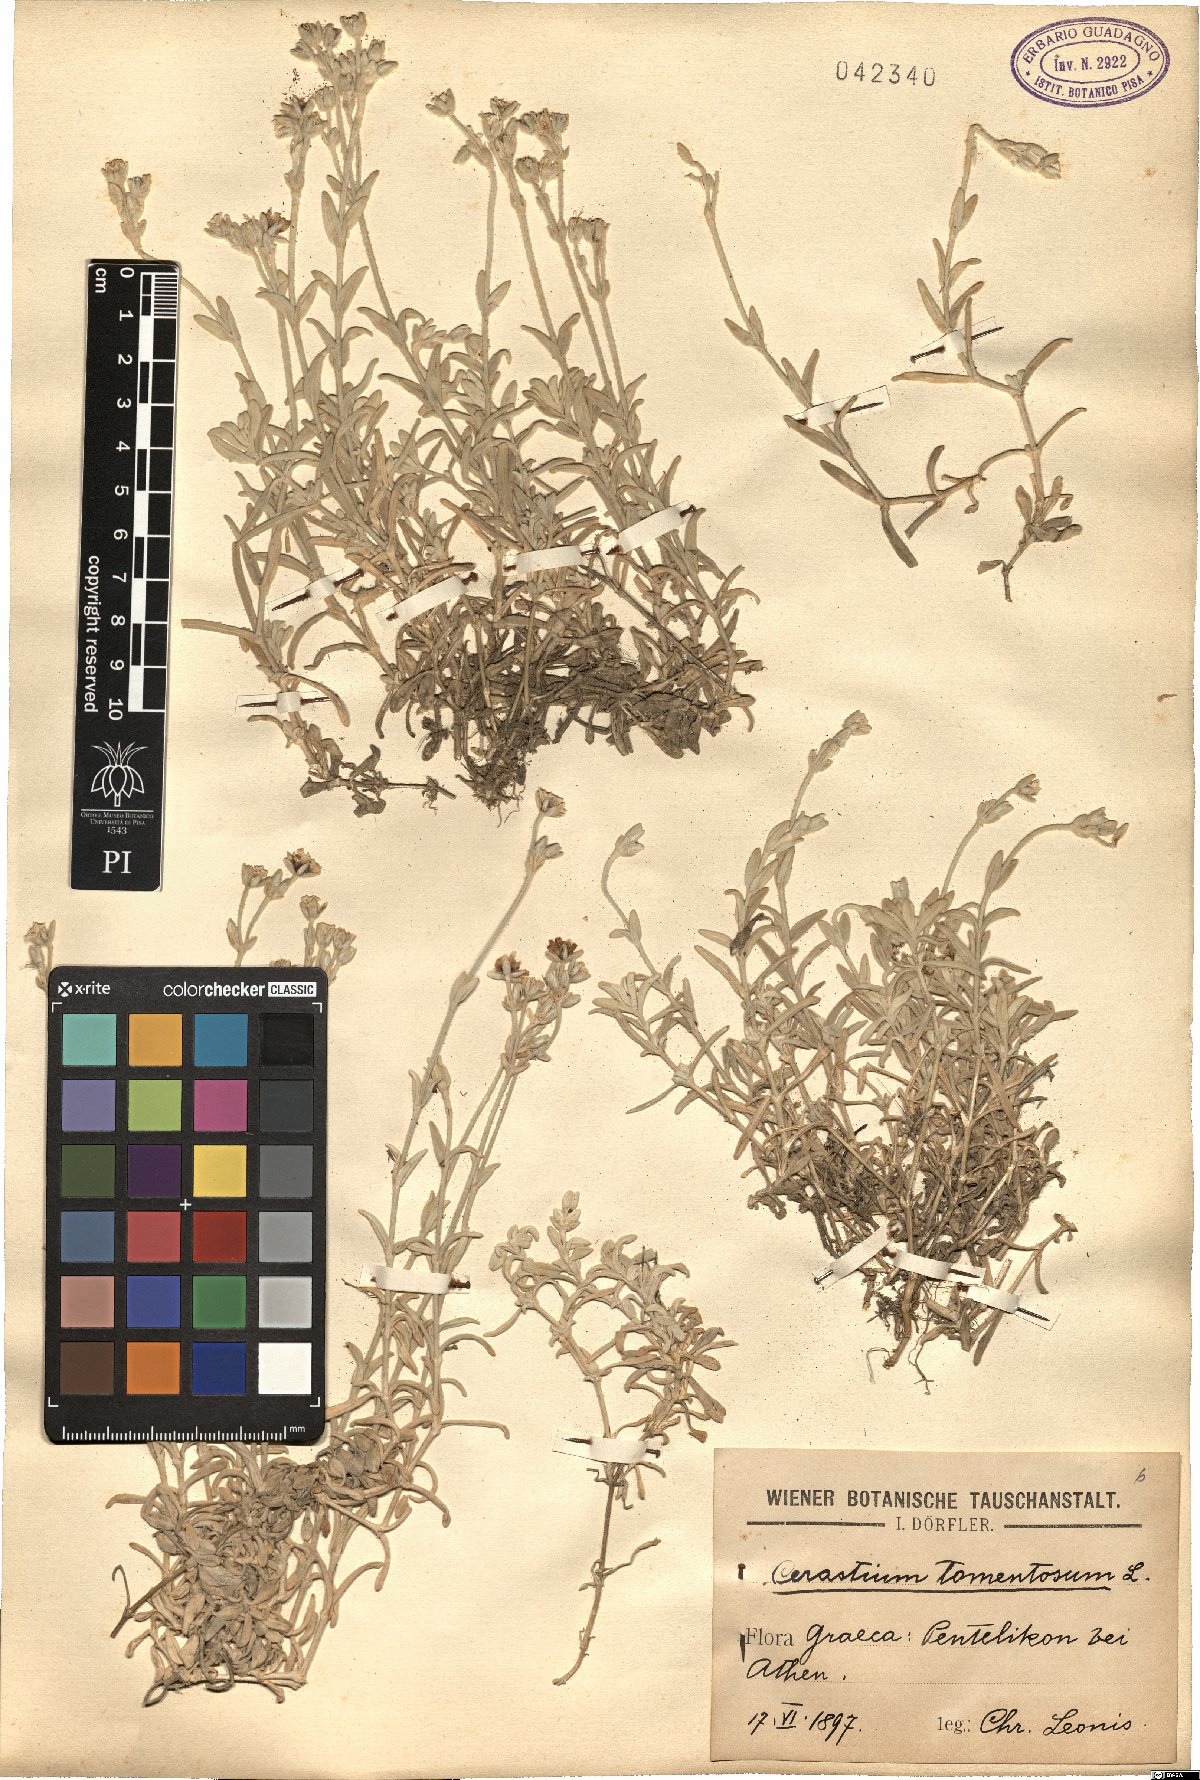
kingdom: Plantae
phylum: Tracheophyta
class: Magnoliopsida
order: Caryophyllales
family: Caryophyllaceae
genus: Cerastium
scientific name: Cerastium tomentosum
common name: Snow-in-summer
